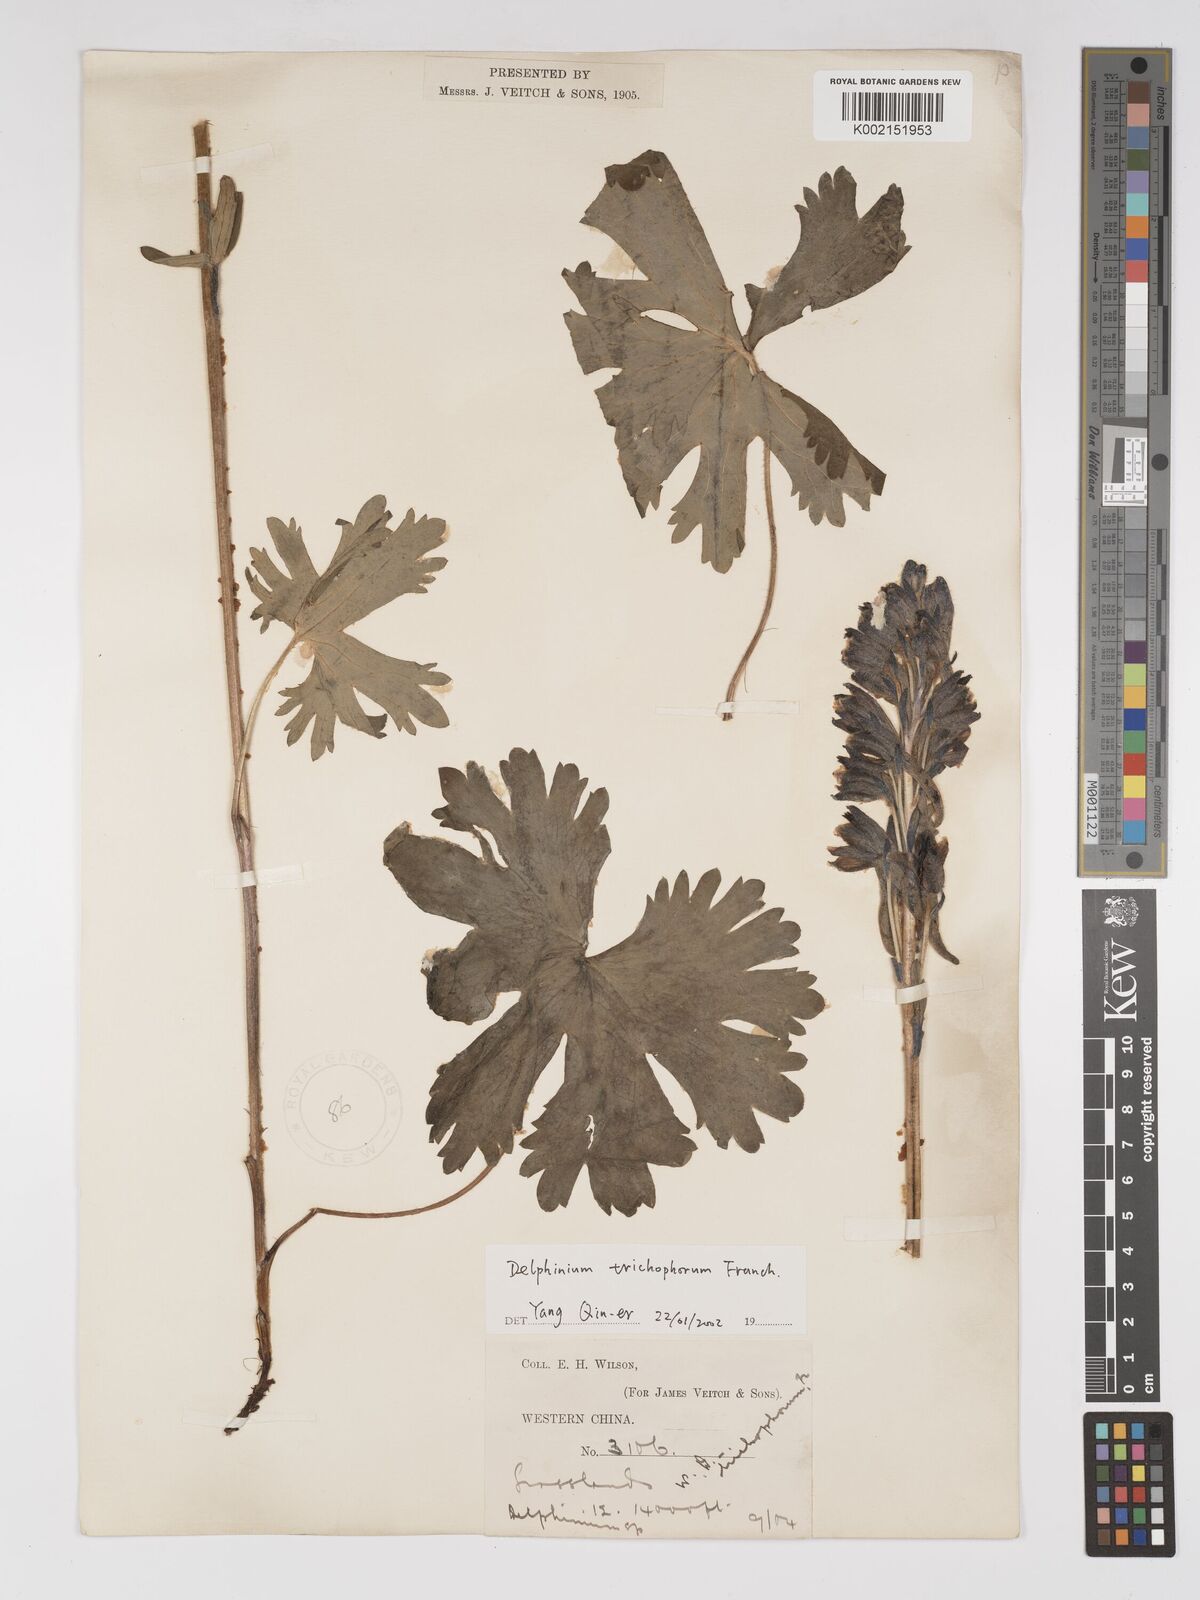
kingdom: Plantae
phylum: Tracheophyta
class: Magnoliopsida
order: Ranunculales
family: Ranunculaceae
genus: Delphinium
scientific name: Delphinium trichophorum
